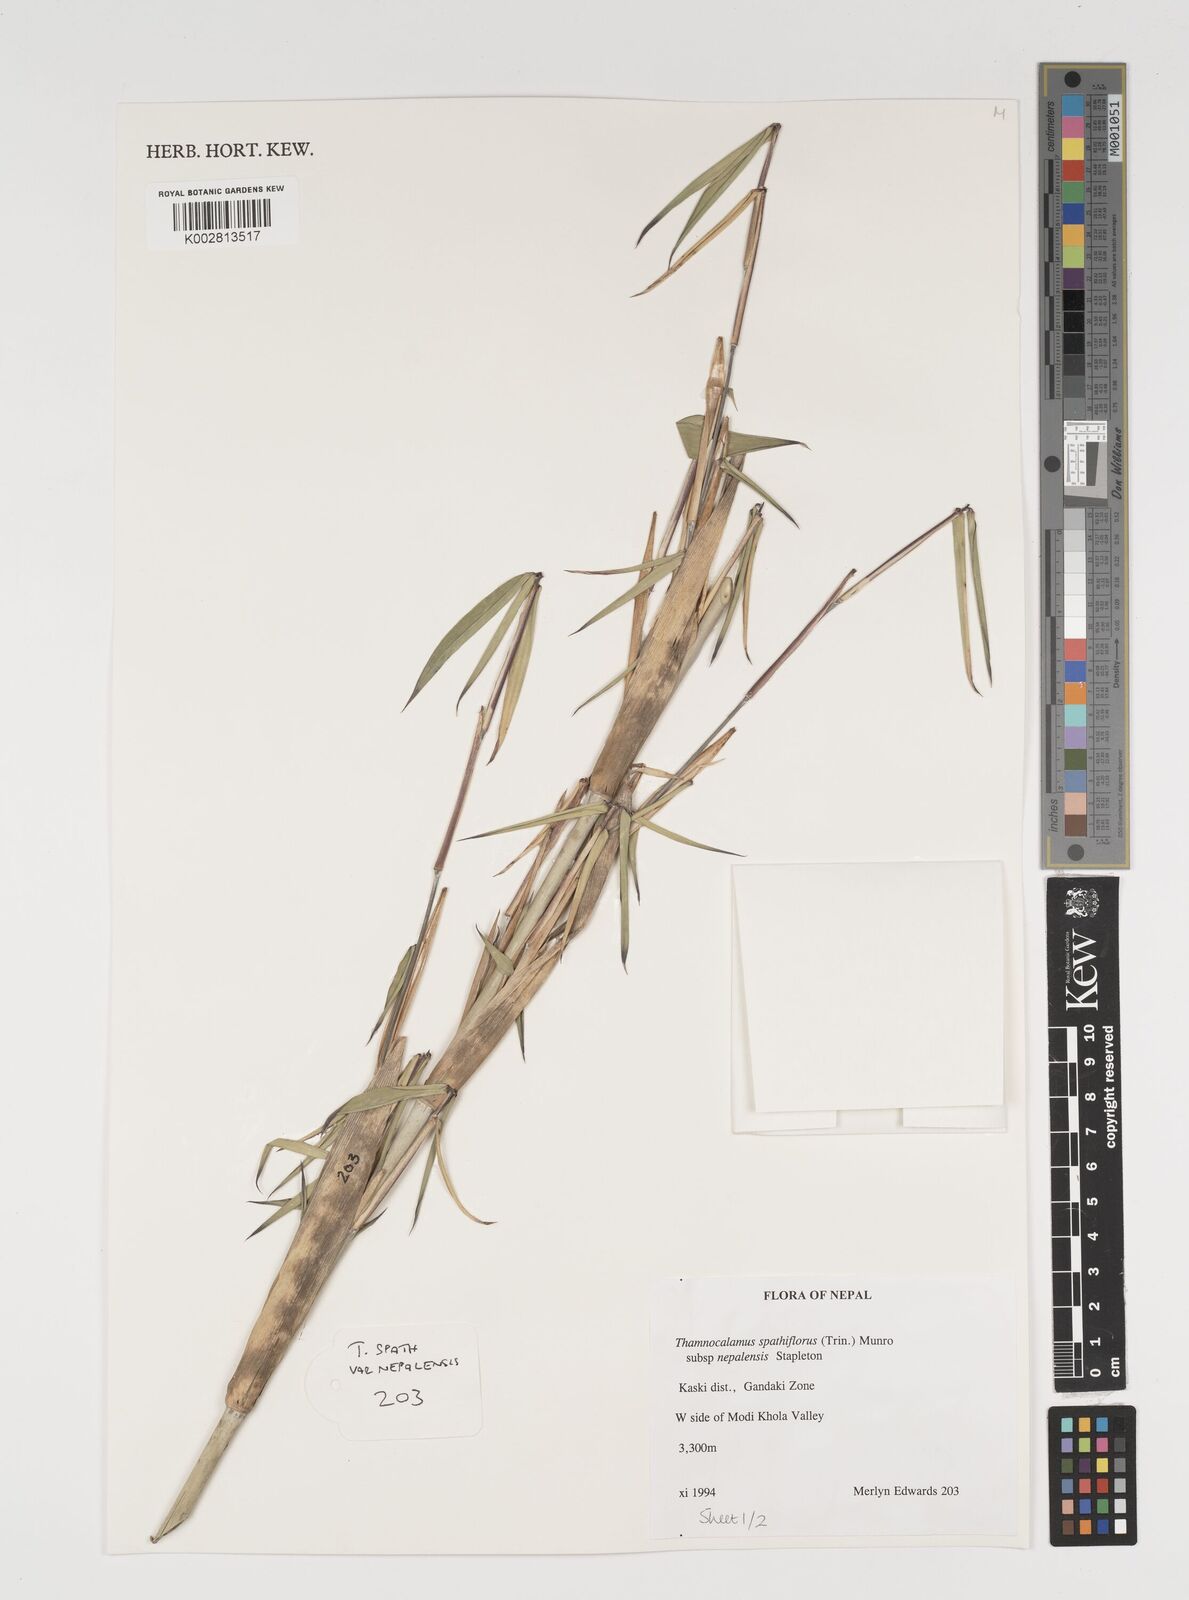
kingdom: Plantae
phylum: Tracheophyta
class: Liliopsida
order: Poales
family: Poaceae
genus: Thamnocalamus
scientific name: Thamnocalamus spathiflorus
